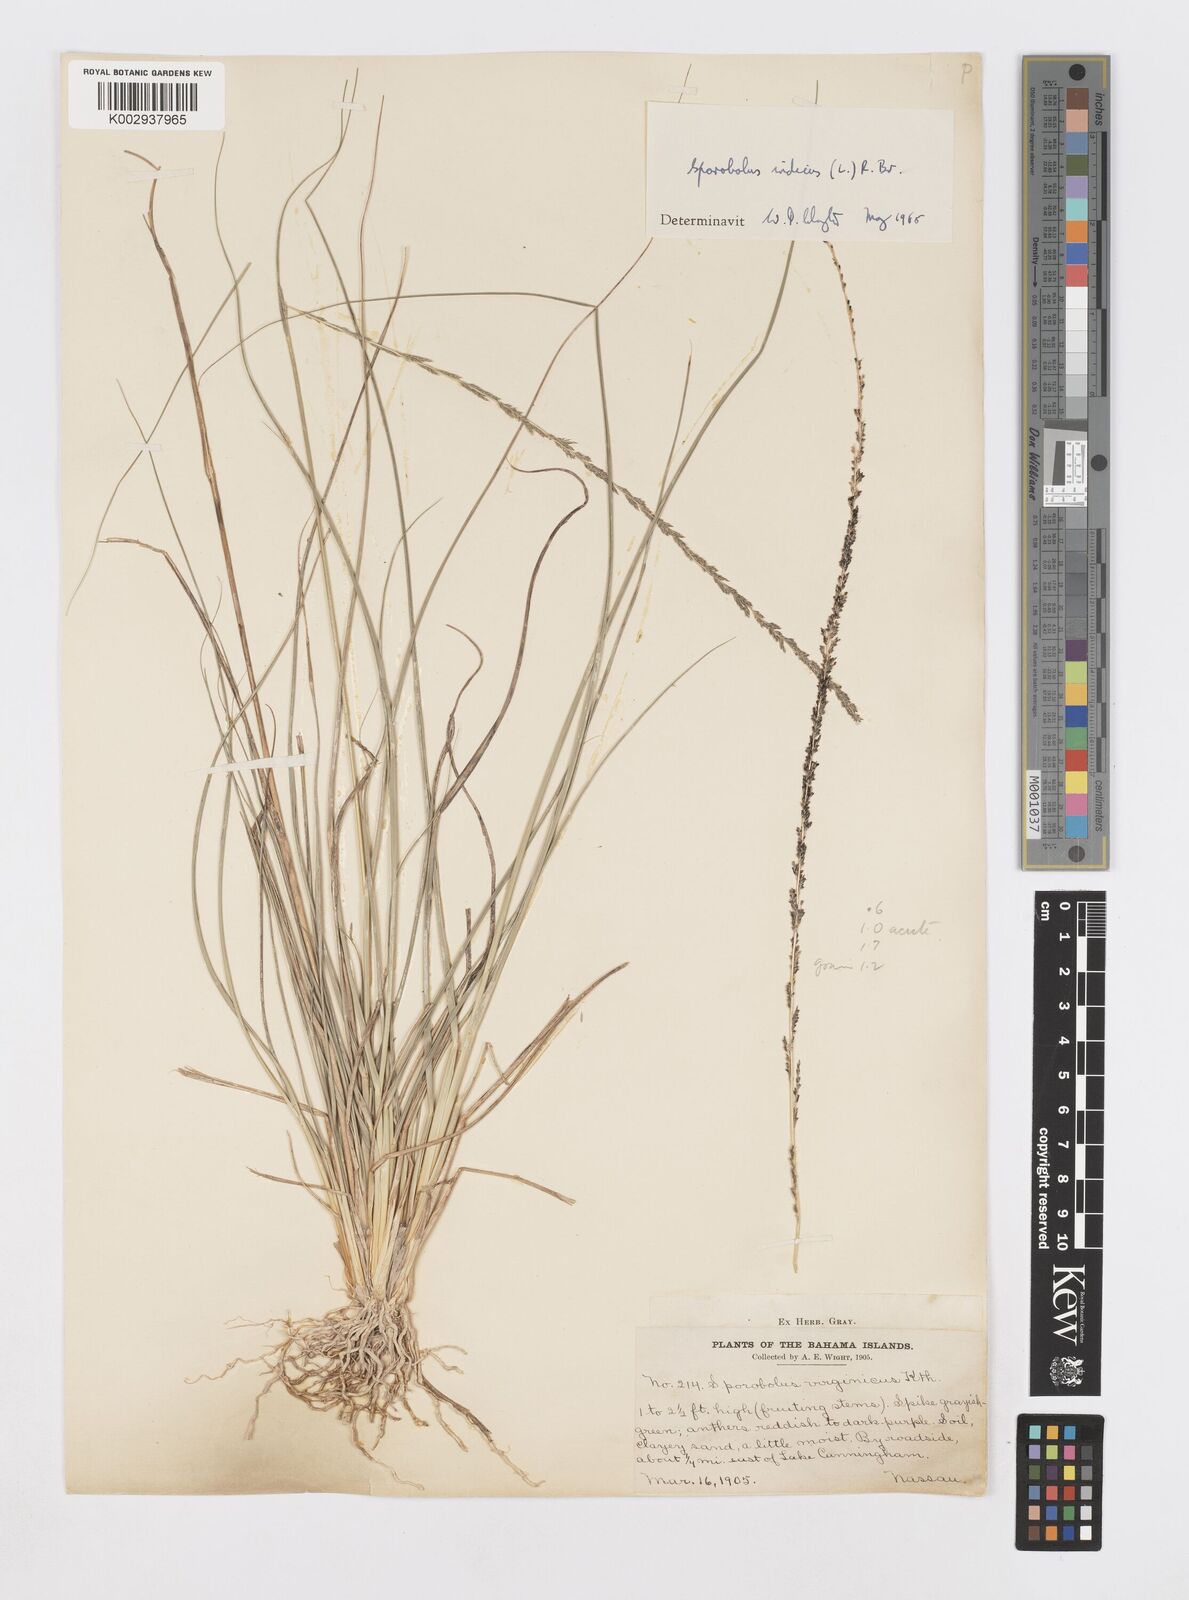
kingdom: Plantae
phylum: Tracheophyta
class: Liliopsida
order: Poales
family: Poaceae
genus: Sporobolus
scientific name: Sporobolus indicus
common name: Smut grass
